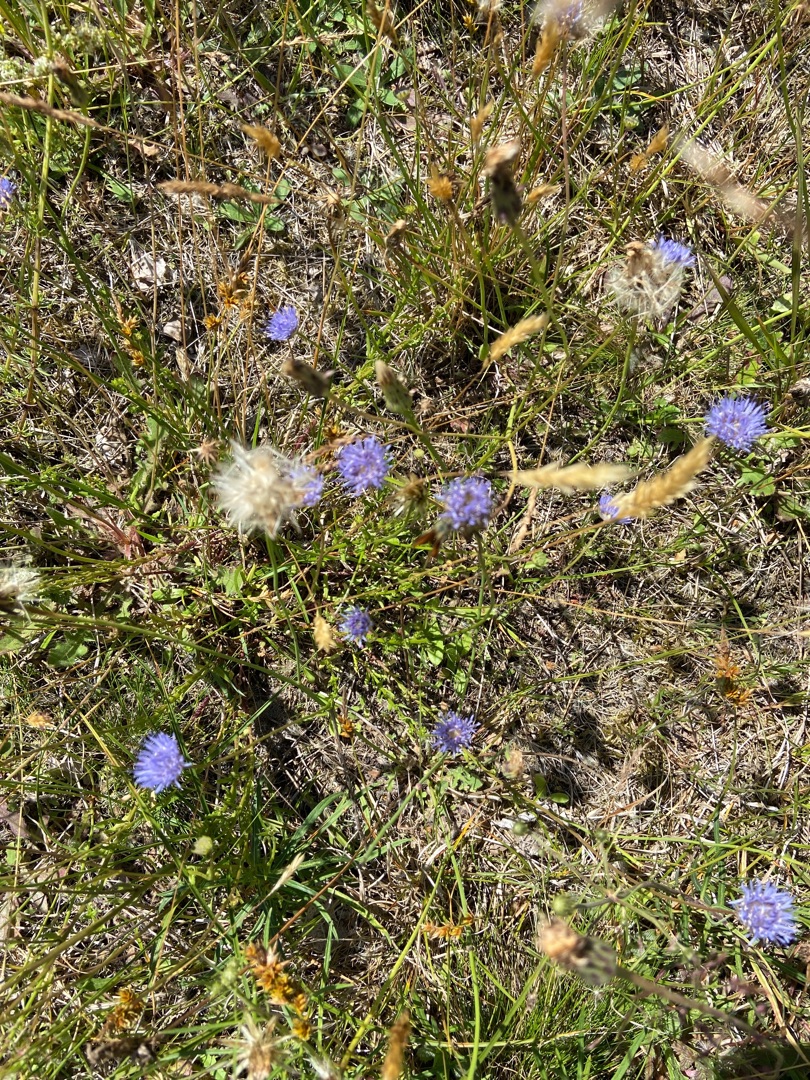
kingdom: Plantae
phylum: Tracheophyta
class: Magnoliopsida
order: Asterales
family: Campanulaceae
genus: Jasione
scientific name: Jasione montana
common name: Blåmunke
